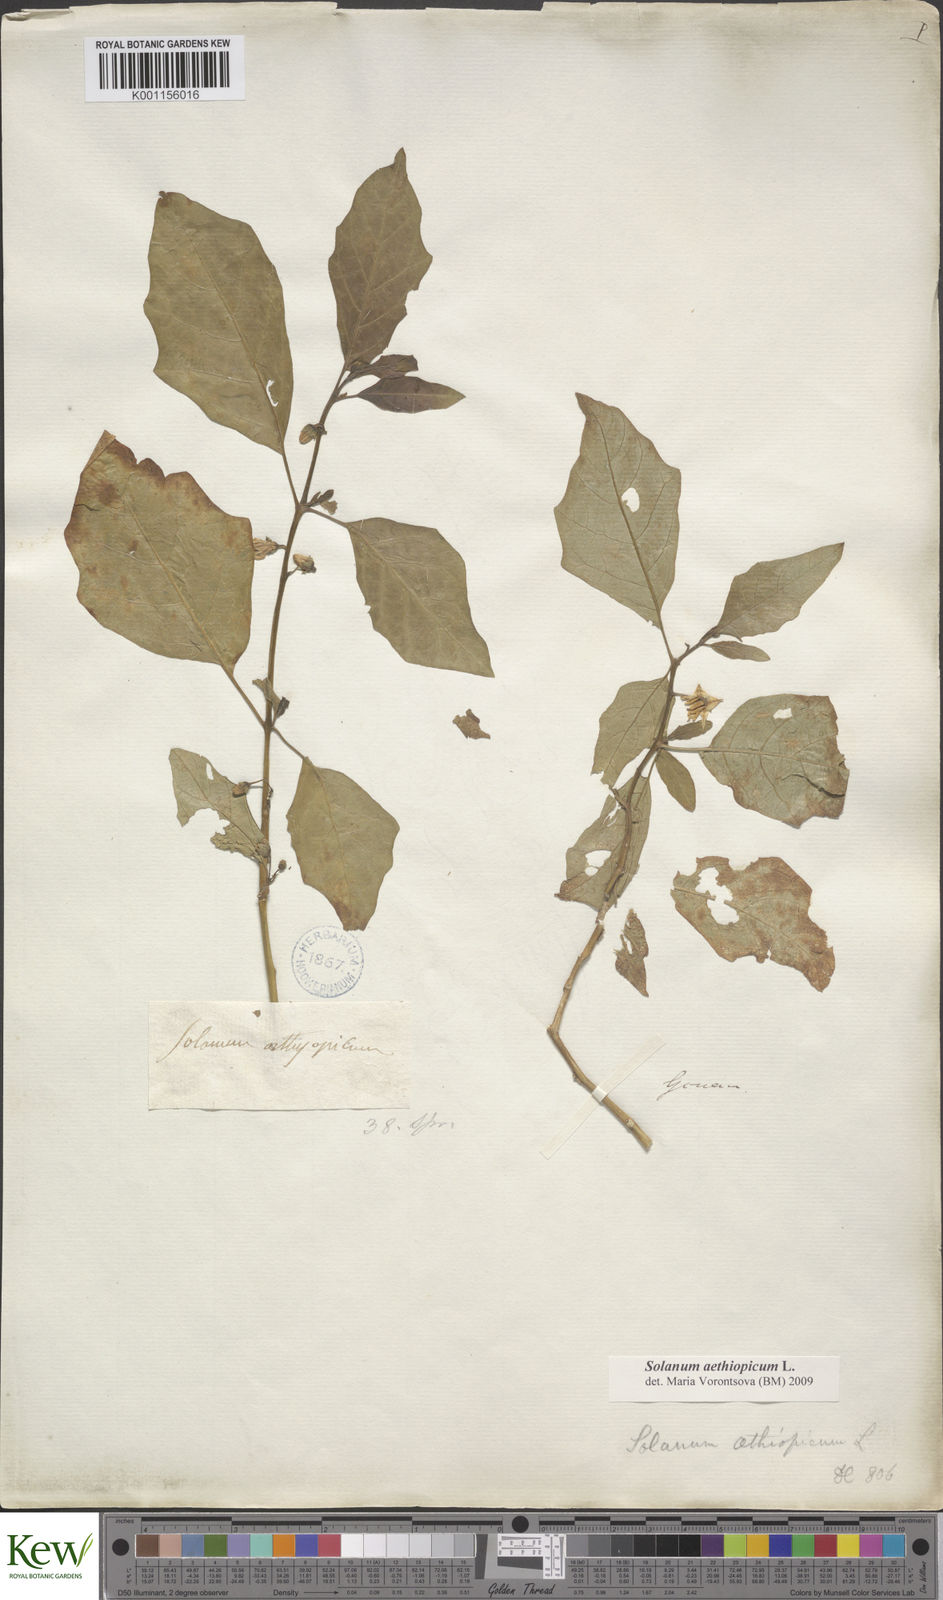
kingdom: Plantae
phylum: Tracheophyta
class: Magnoliopsida
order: Solanales
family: Solanaceae
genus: Solanum
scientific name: Solanum aethiopicum
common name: Gilo
